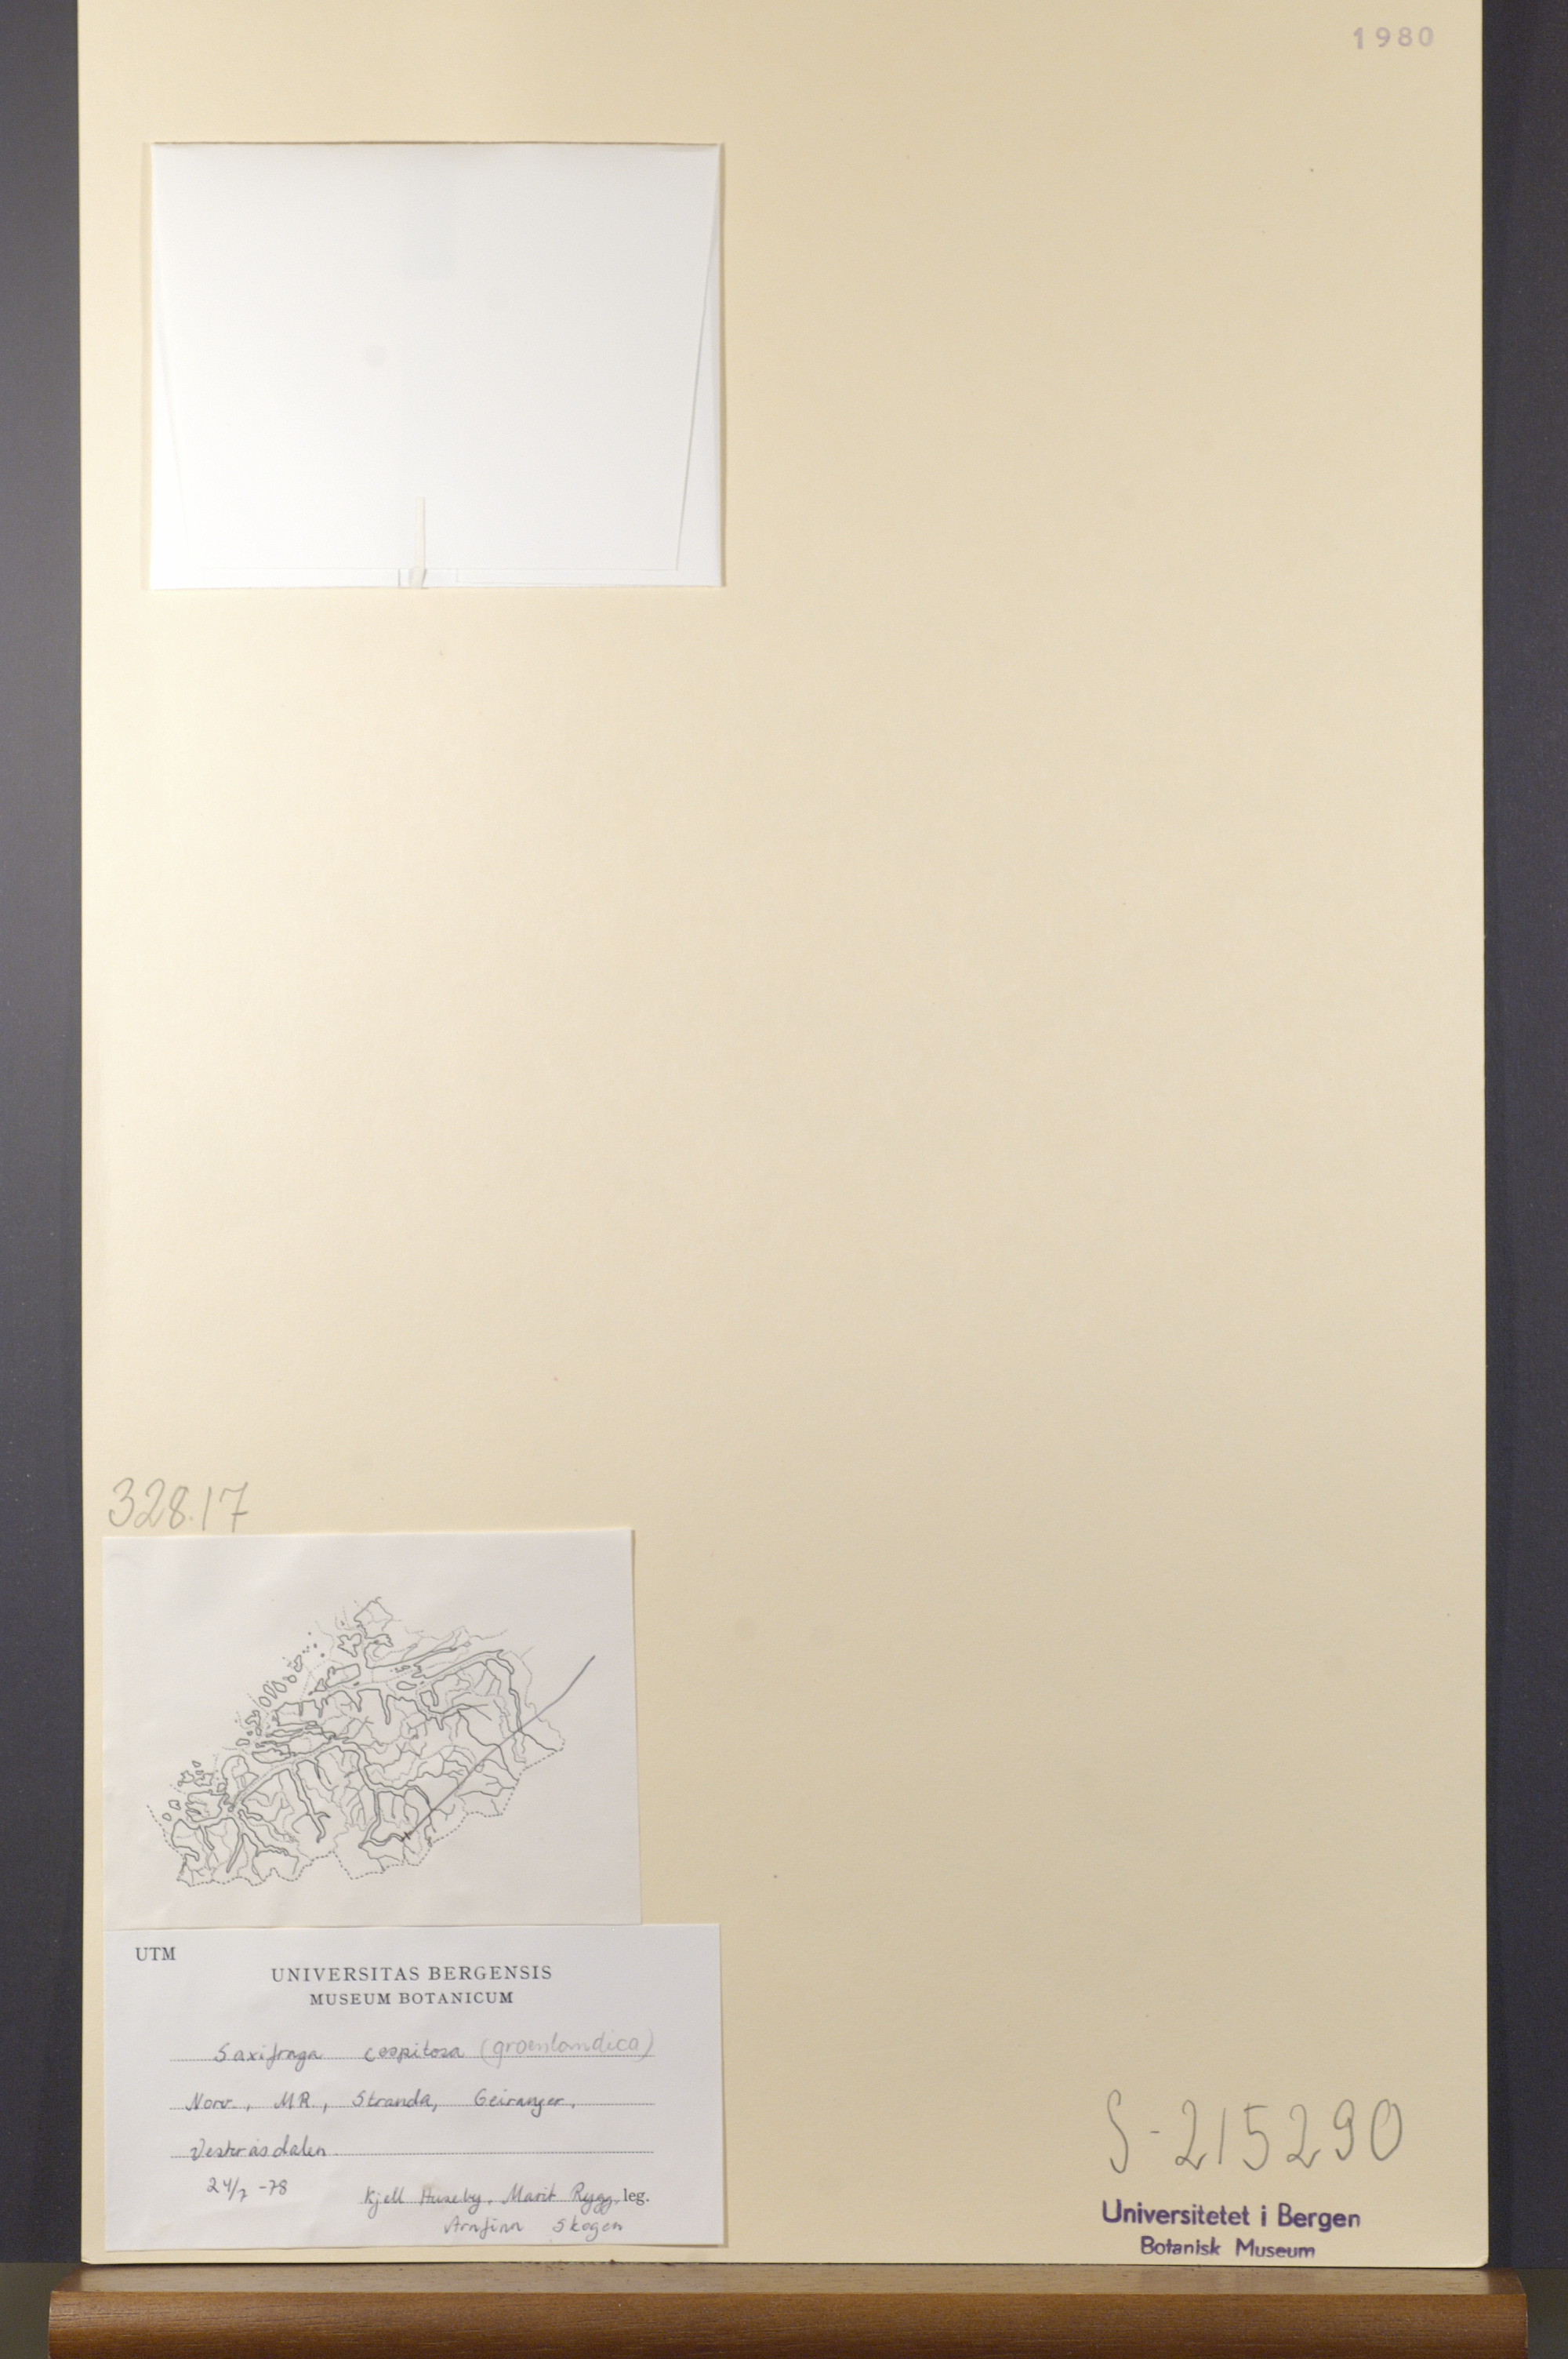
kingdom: Plantae
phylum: Tracheophyta
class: Magnoliopsida
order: Saxifragales
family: Saxifragaceae
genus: Saxifraga
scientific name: Saxifraga cespitosa
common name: Tufted saxifrage
